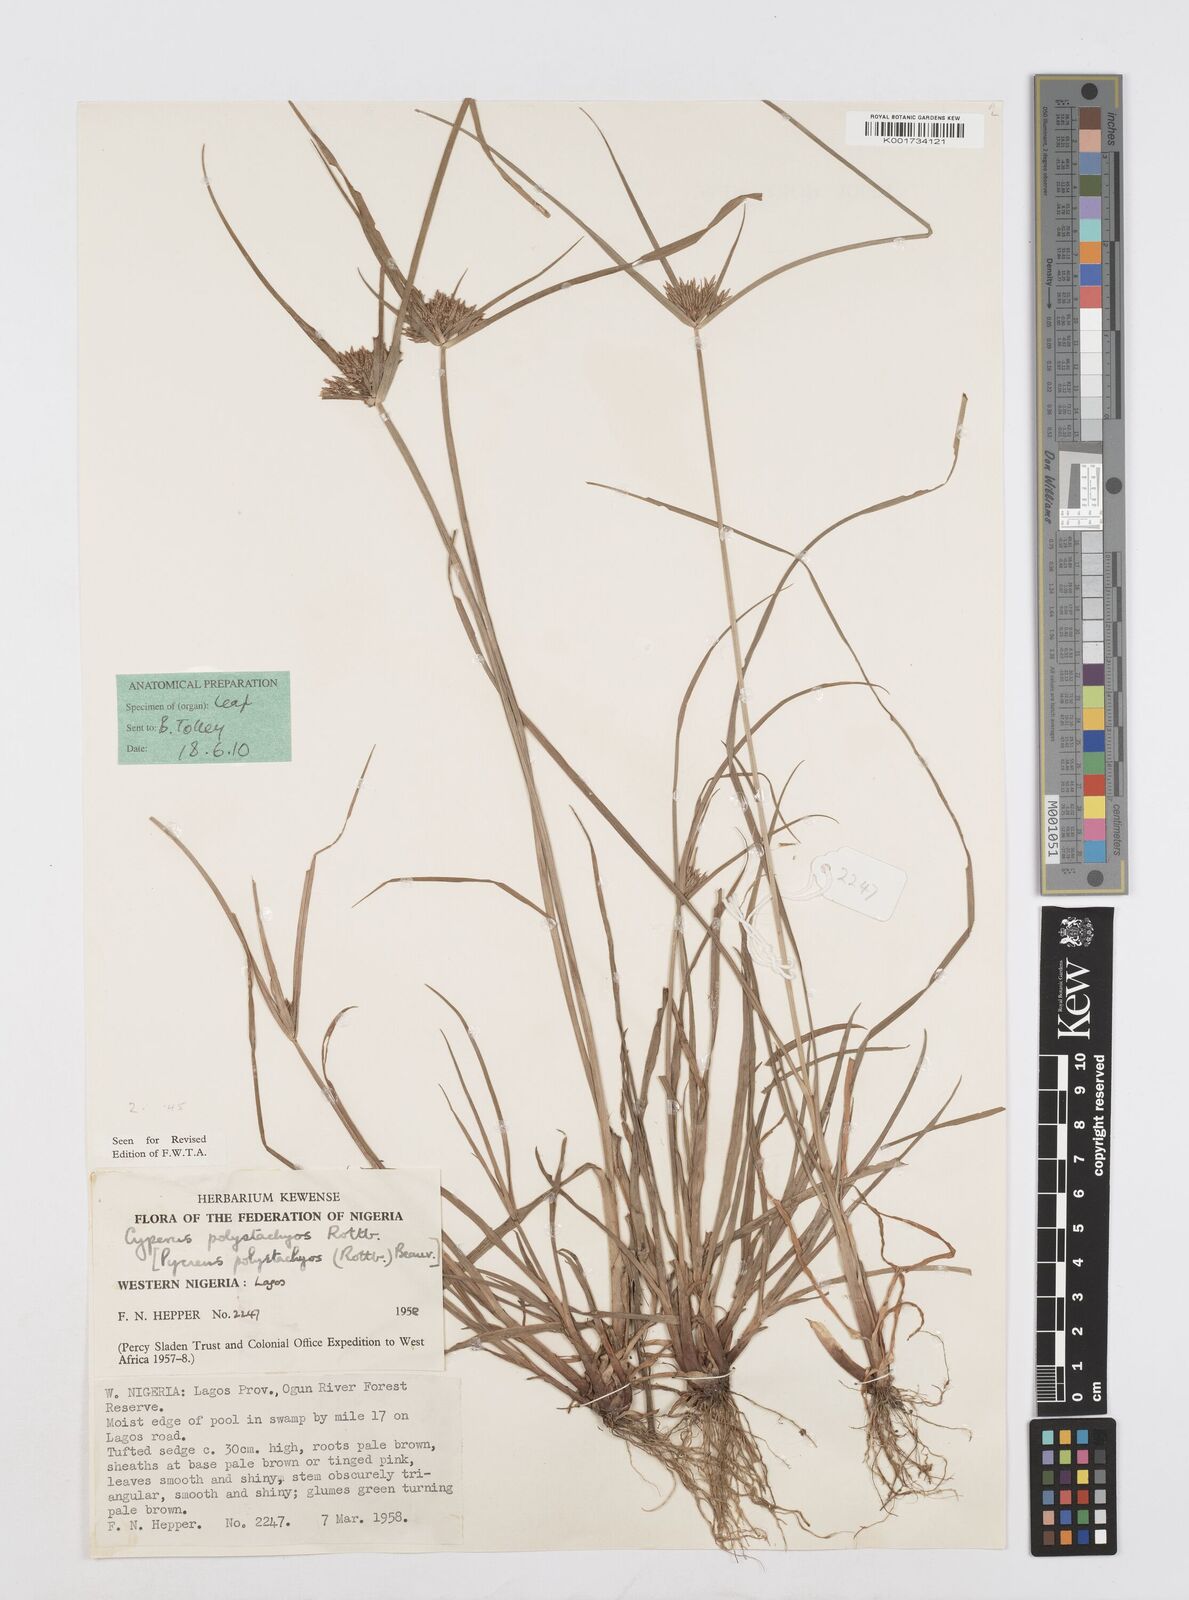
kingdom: Plantae
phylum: Tracheophyta
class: Liliopsida
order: Poales
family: Cyperaceae
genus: Cyperus
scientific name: Cyperus polystachyos
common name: Bunchy flat sedge
